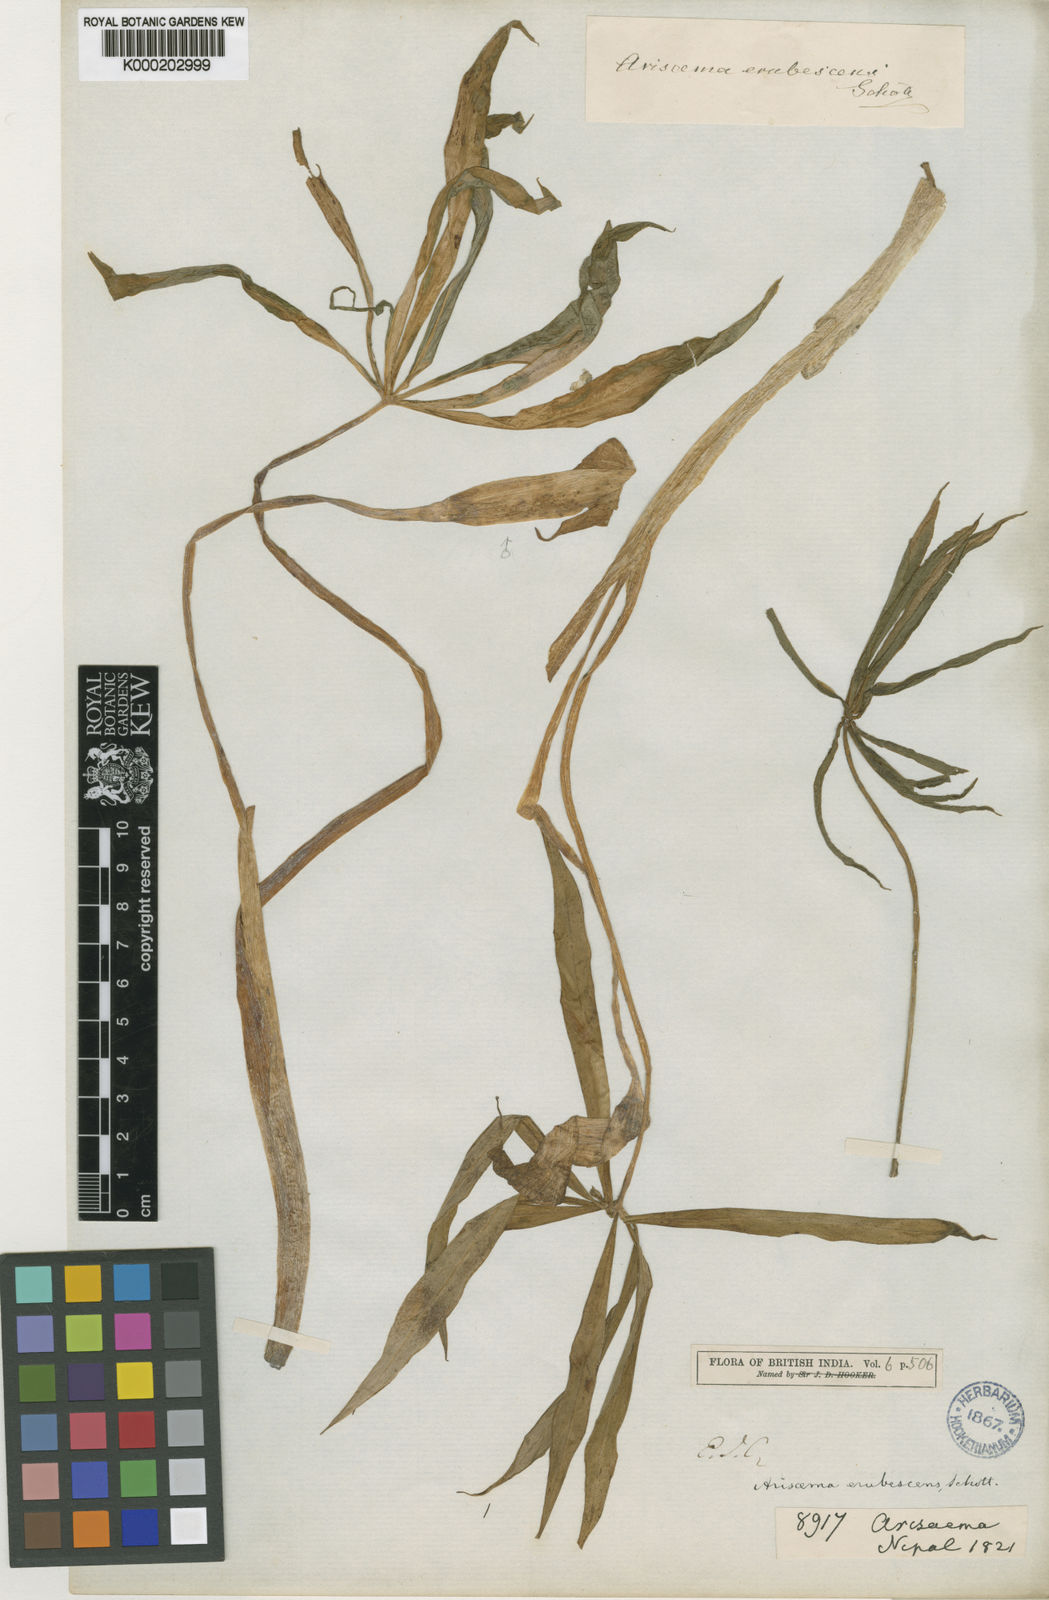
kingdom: Plantae
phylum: Tracheophyta
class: Liliopsida
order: Alismatales
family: Araceae
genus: Arisaema
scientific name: Arisaema erubescens
